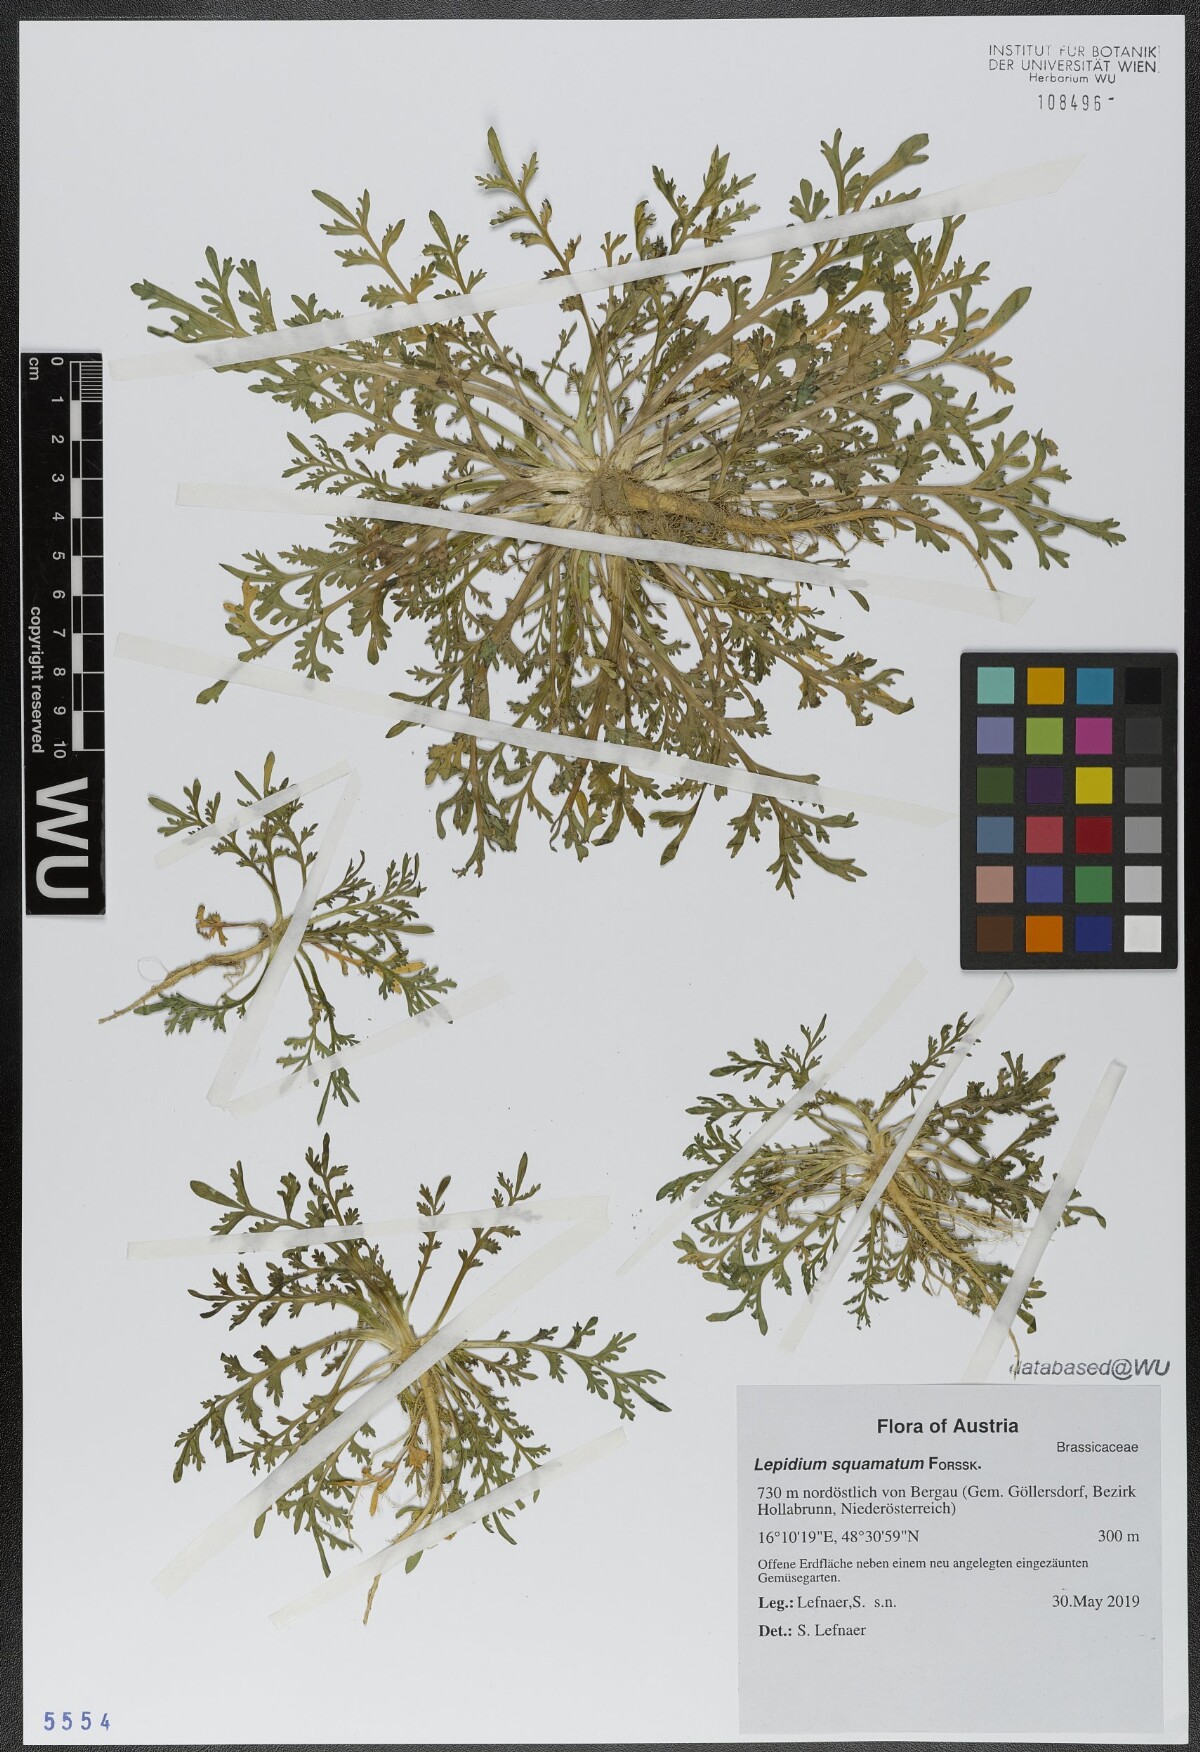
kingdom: Plantae
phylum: Tracheophyta
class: Magnoliopsida
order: Brassicales
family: Brassicaceae
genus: Lepidium
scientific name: Lepidium coronopus
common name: Greater swinecress
